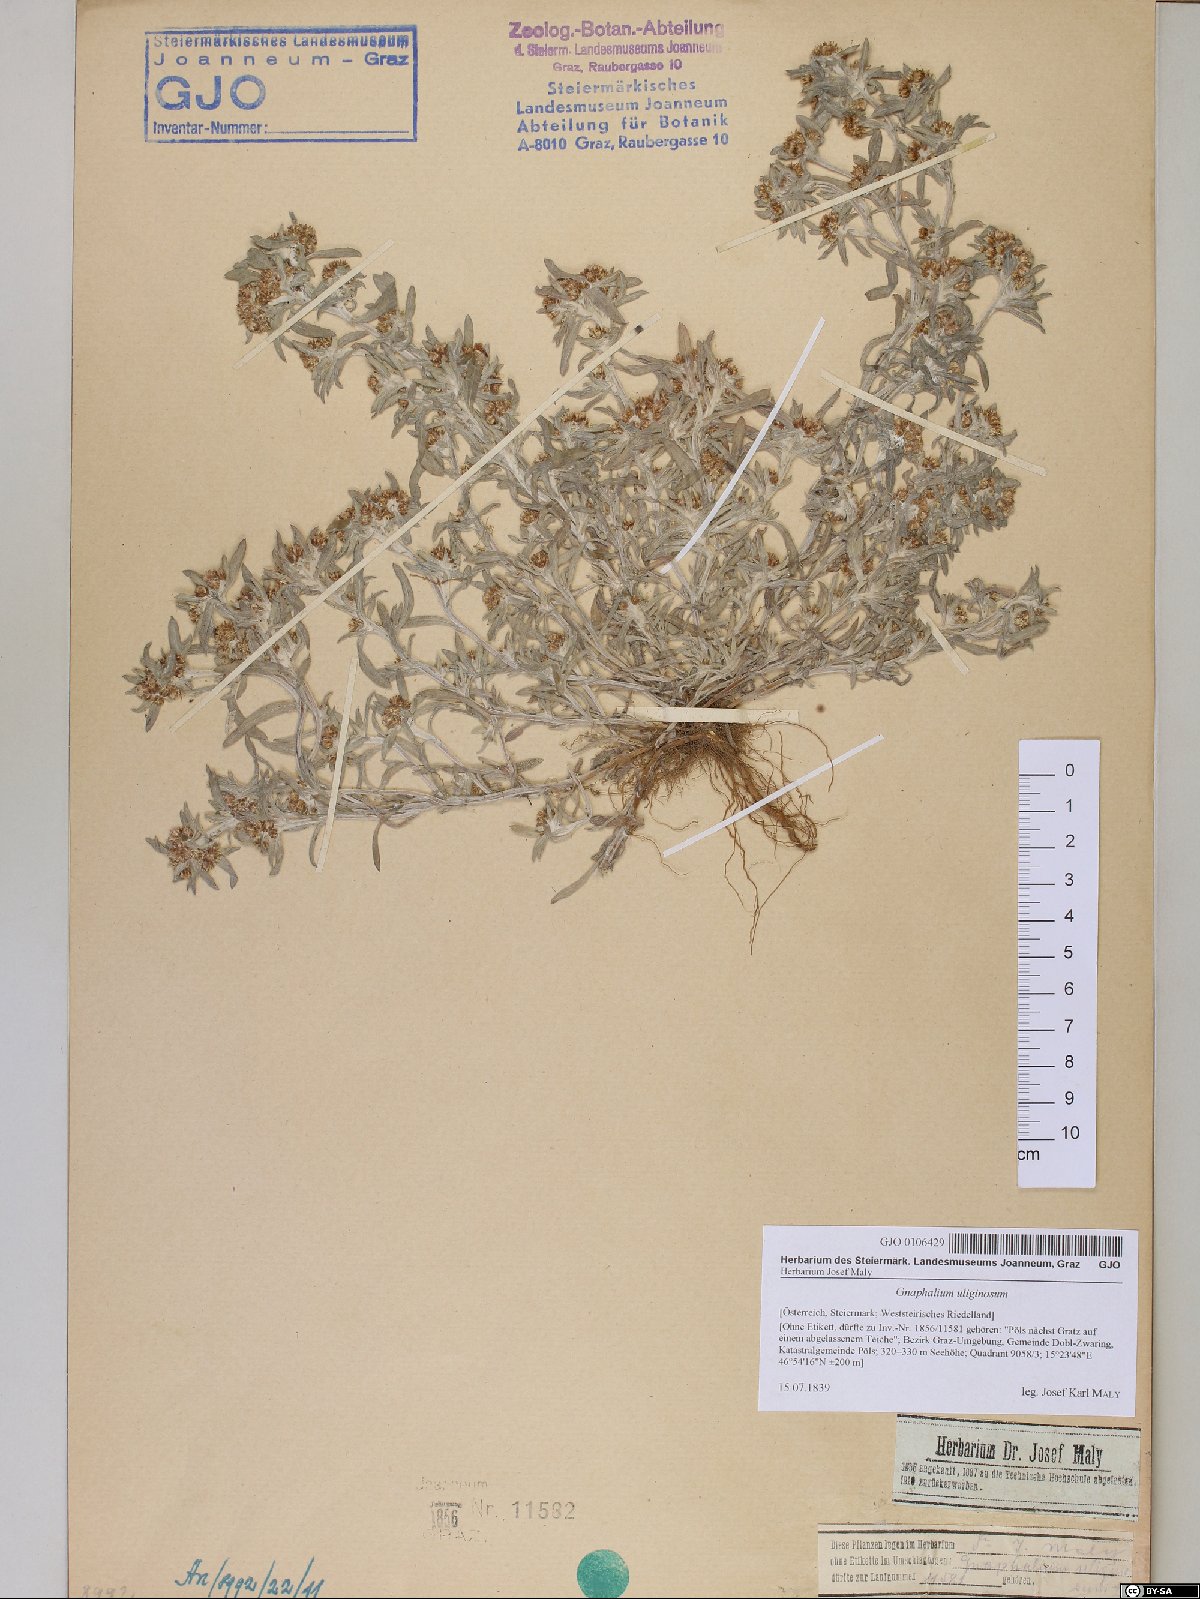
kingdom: Plantae
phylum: Tracheophyta
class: Magnoliopsida
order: Asterales
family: Asteraceae
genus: Gnaphalium
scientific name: Gnaphalium uliginosum
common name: Marsh cudweed
